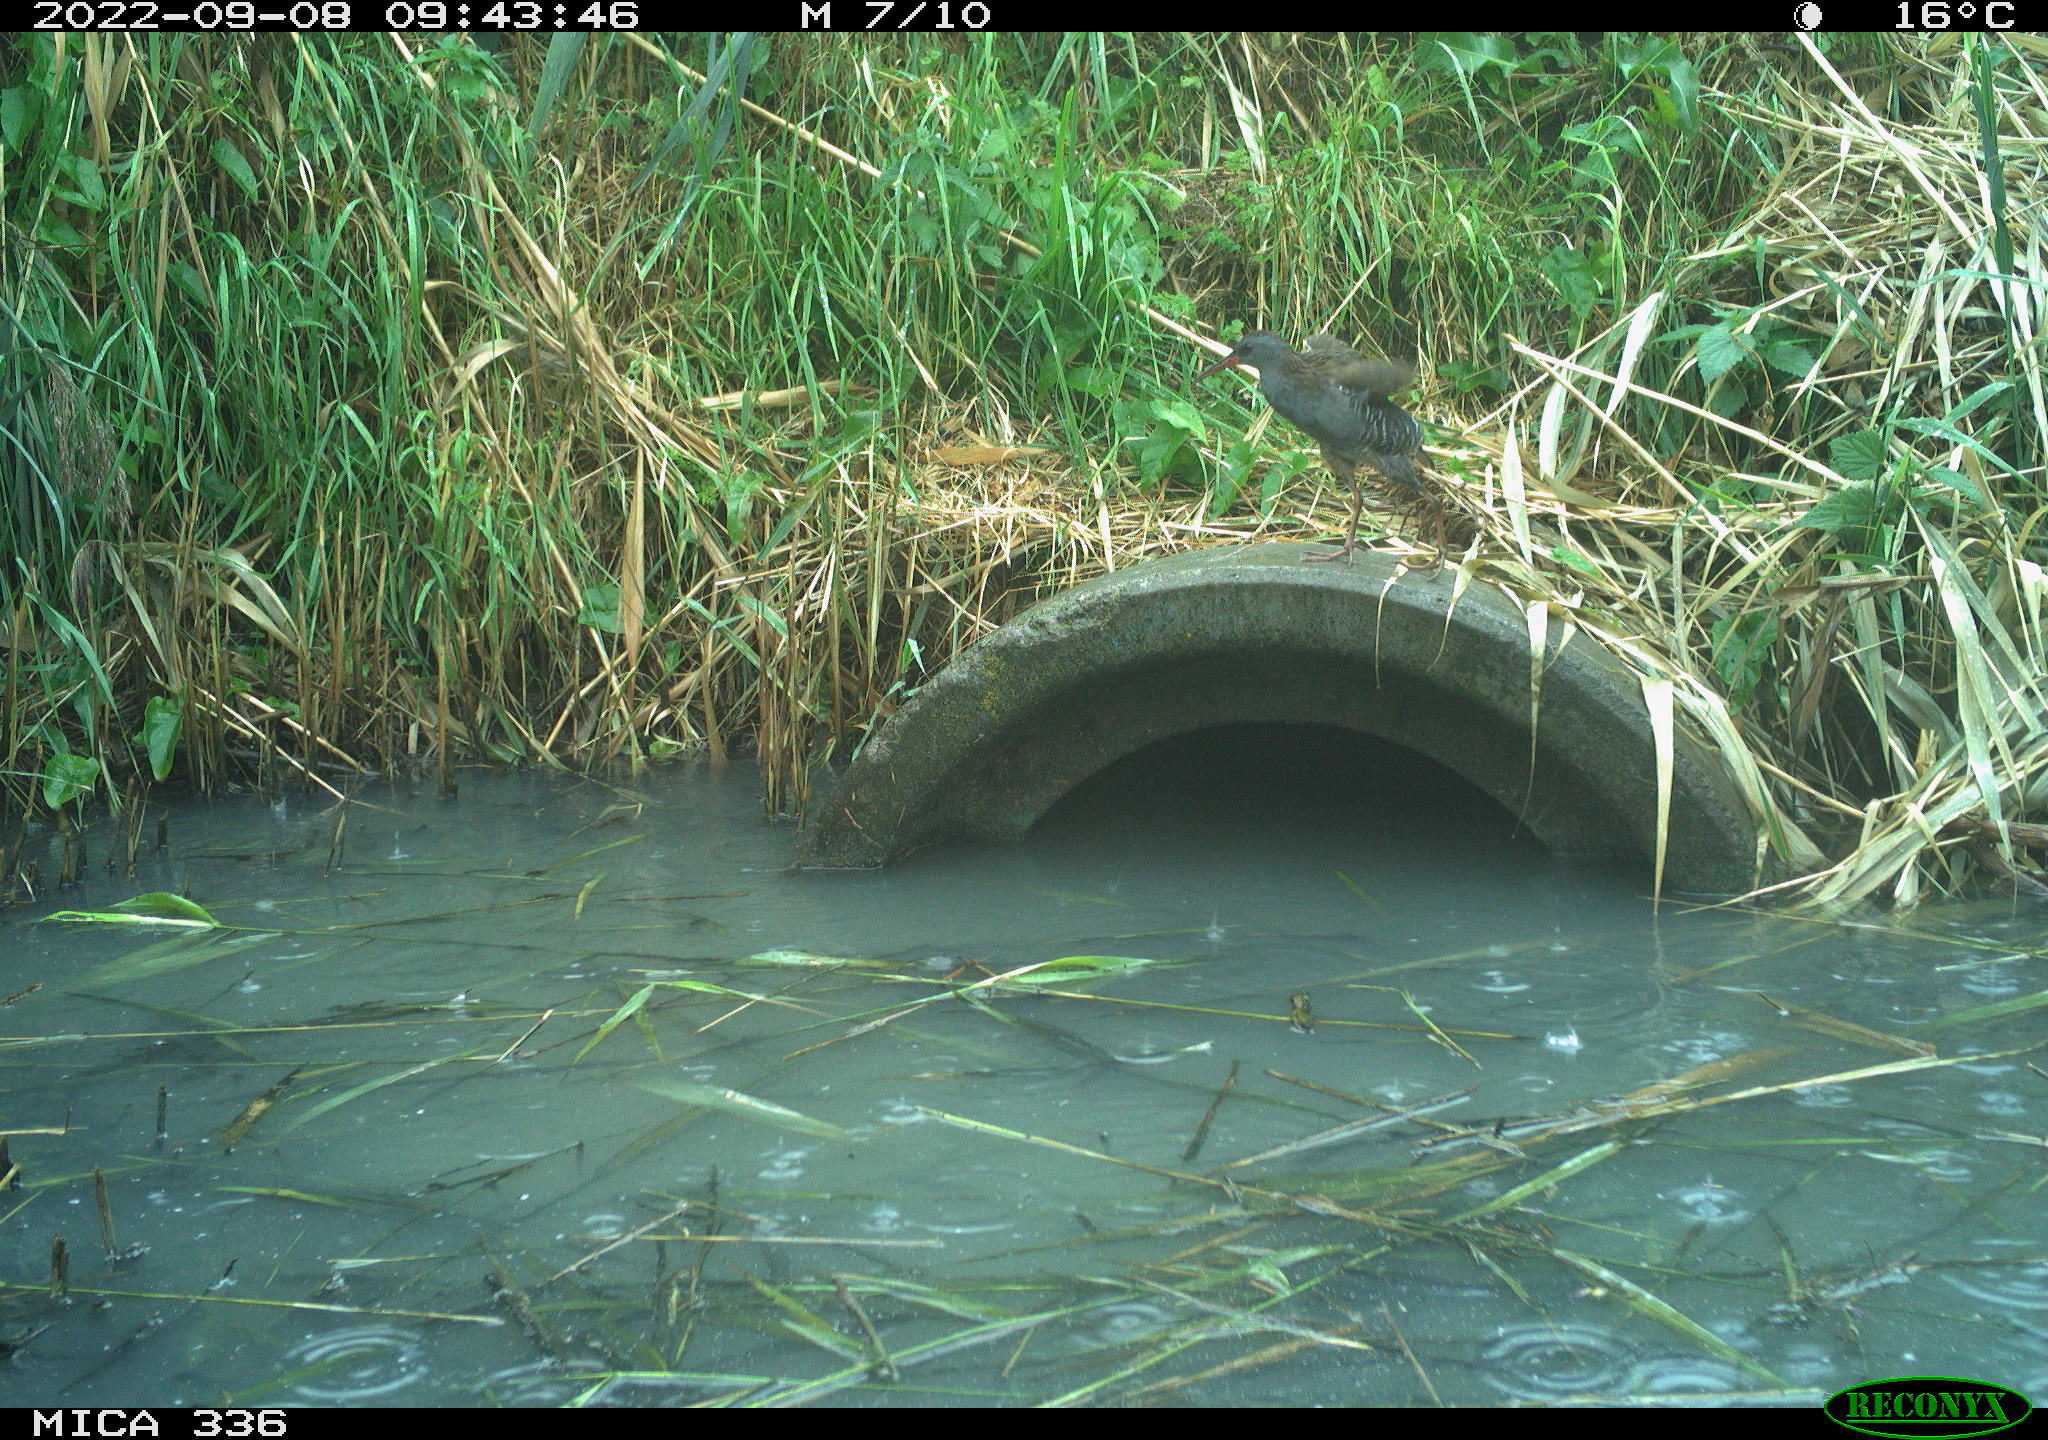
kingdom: Animalia
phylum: Chordata
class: Aves
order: Gruiformes
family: Rallidae
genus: Rallus
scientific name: Rallus aquaticus
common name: Water rail
